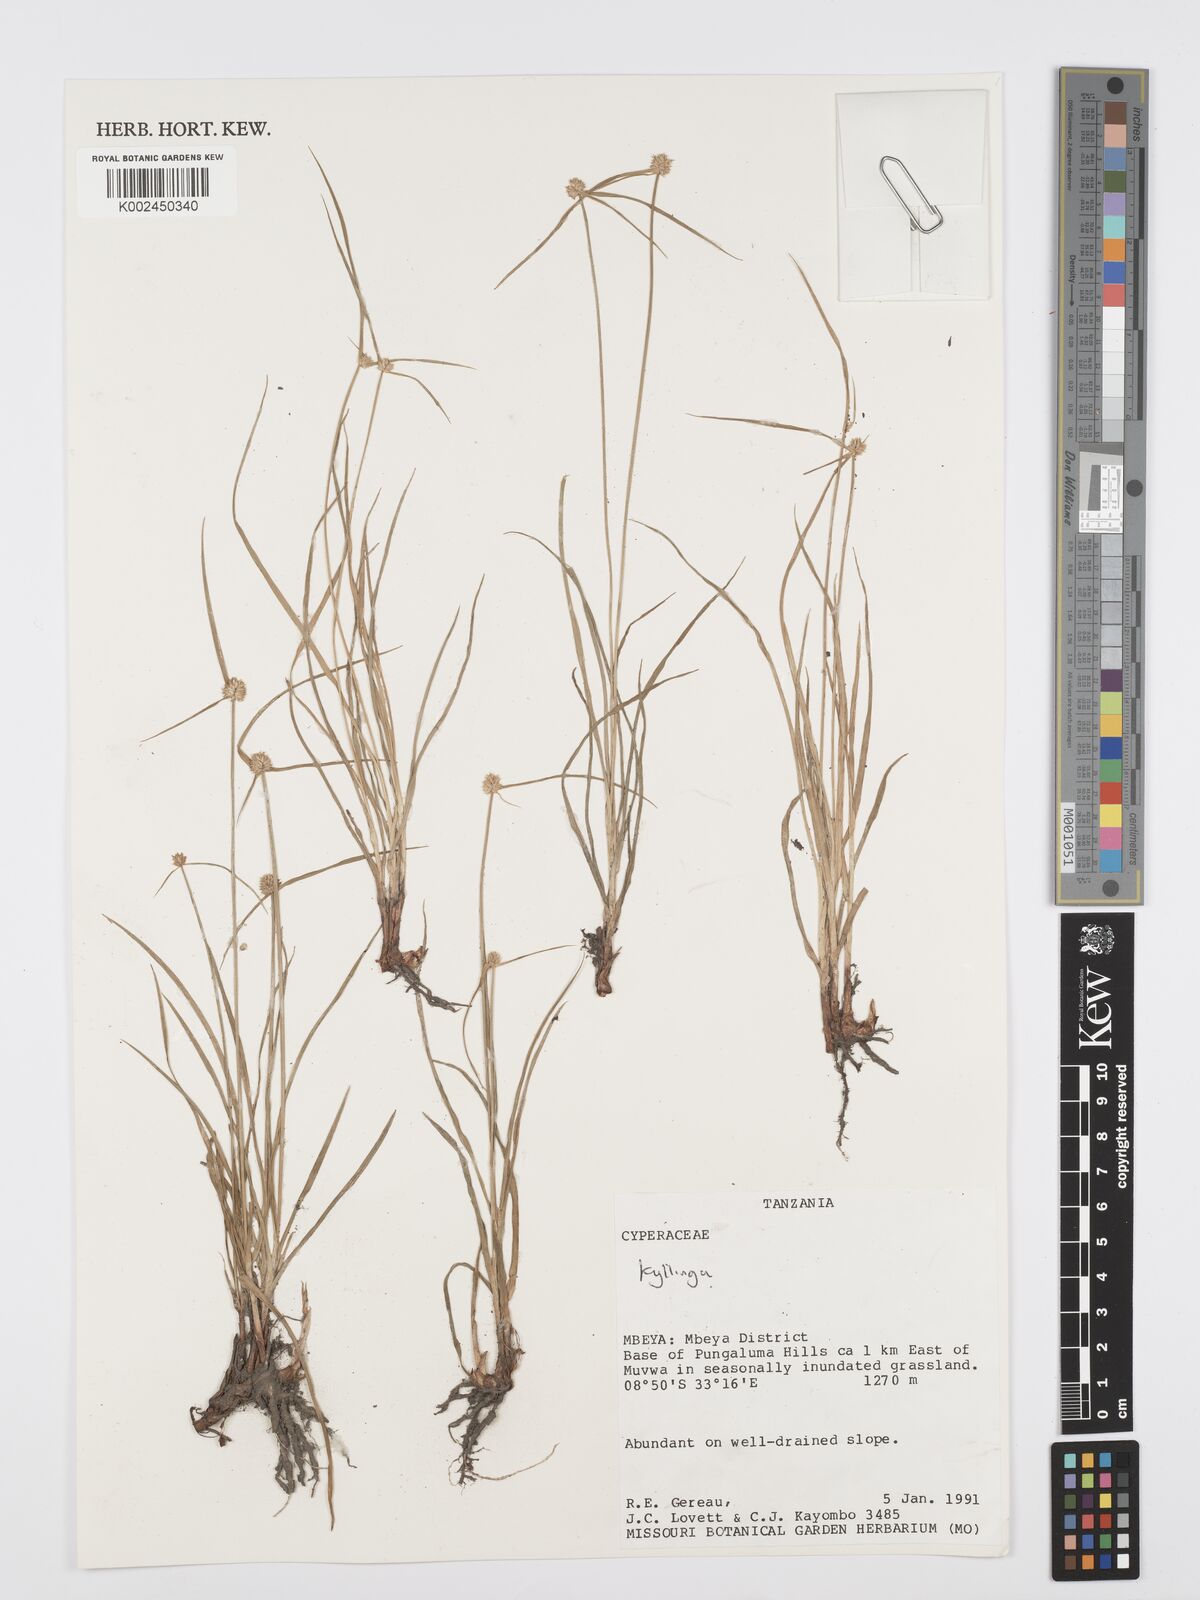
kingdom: Plantae
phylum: Tracheophyta
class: Liliopsida
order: Poales
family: Cyperaceae
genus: Cyperus
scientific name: Cyperus
